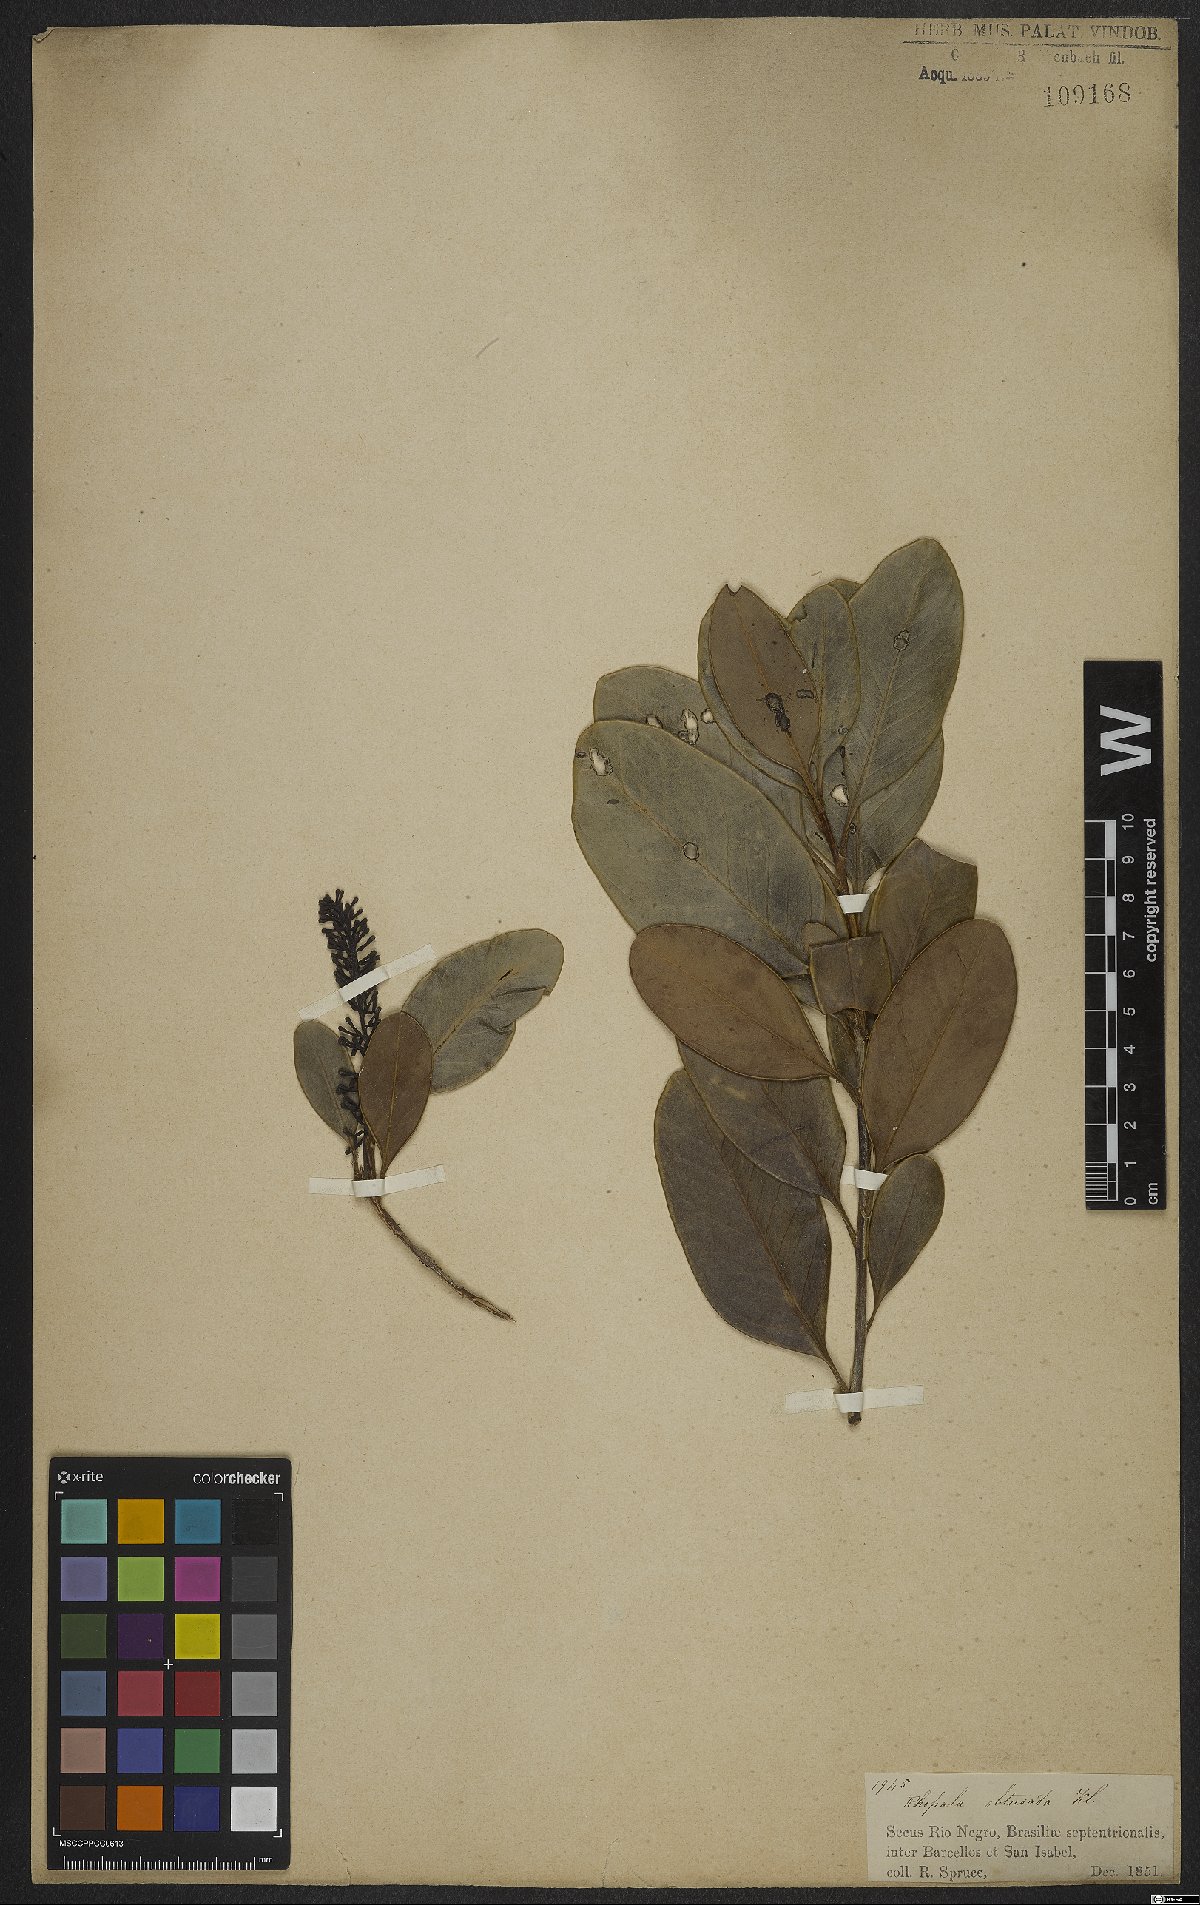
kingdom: Plantae
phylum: Tracheophyta
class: Magnoliopsida
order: Proteales
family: Proteaceae
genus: Roupala
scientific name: Roupala obtusata
